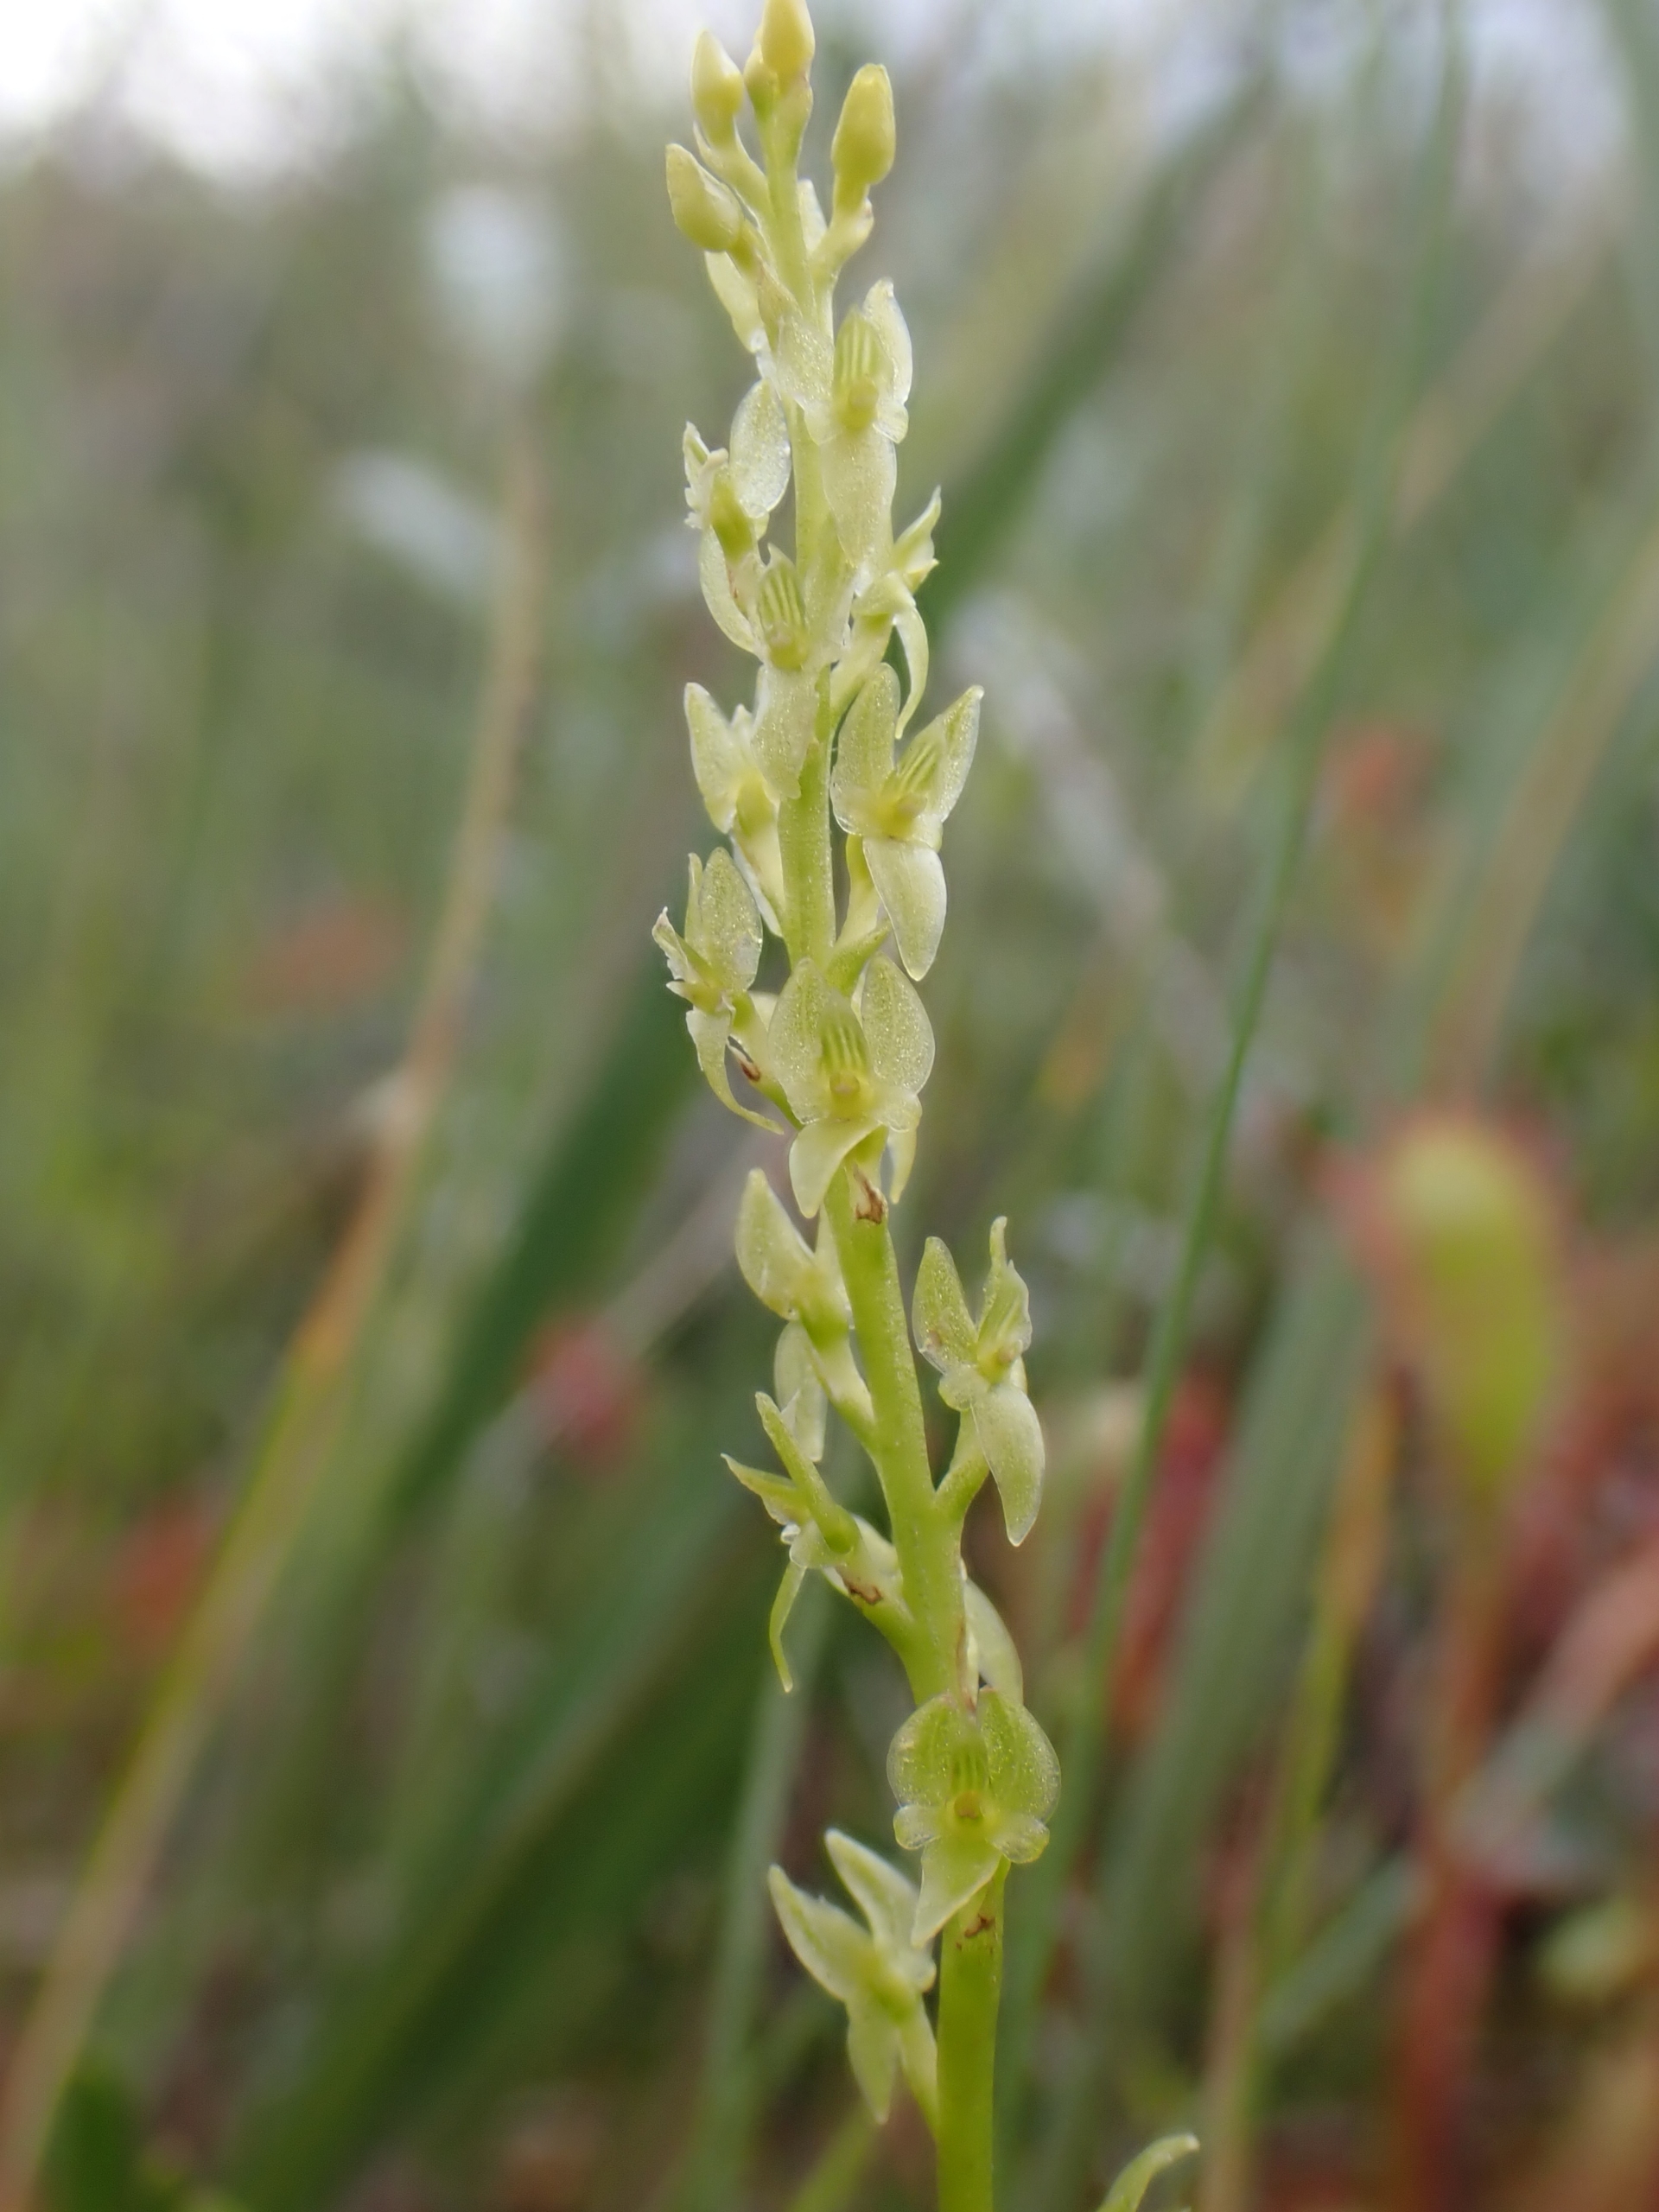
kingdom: Plantae
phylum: Tracheophyta
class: Liliopsida
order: Asparagales
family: Orchidaceae
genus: Hammarbya
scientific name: Hammarbya paludosa
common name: Hjertelæbe
